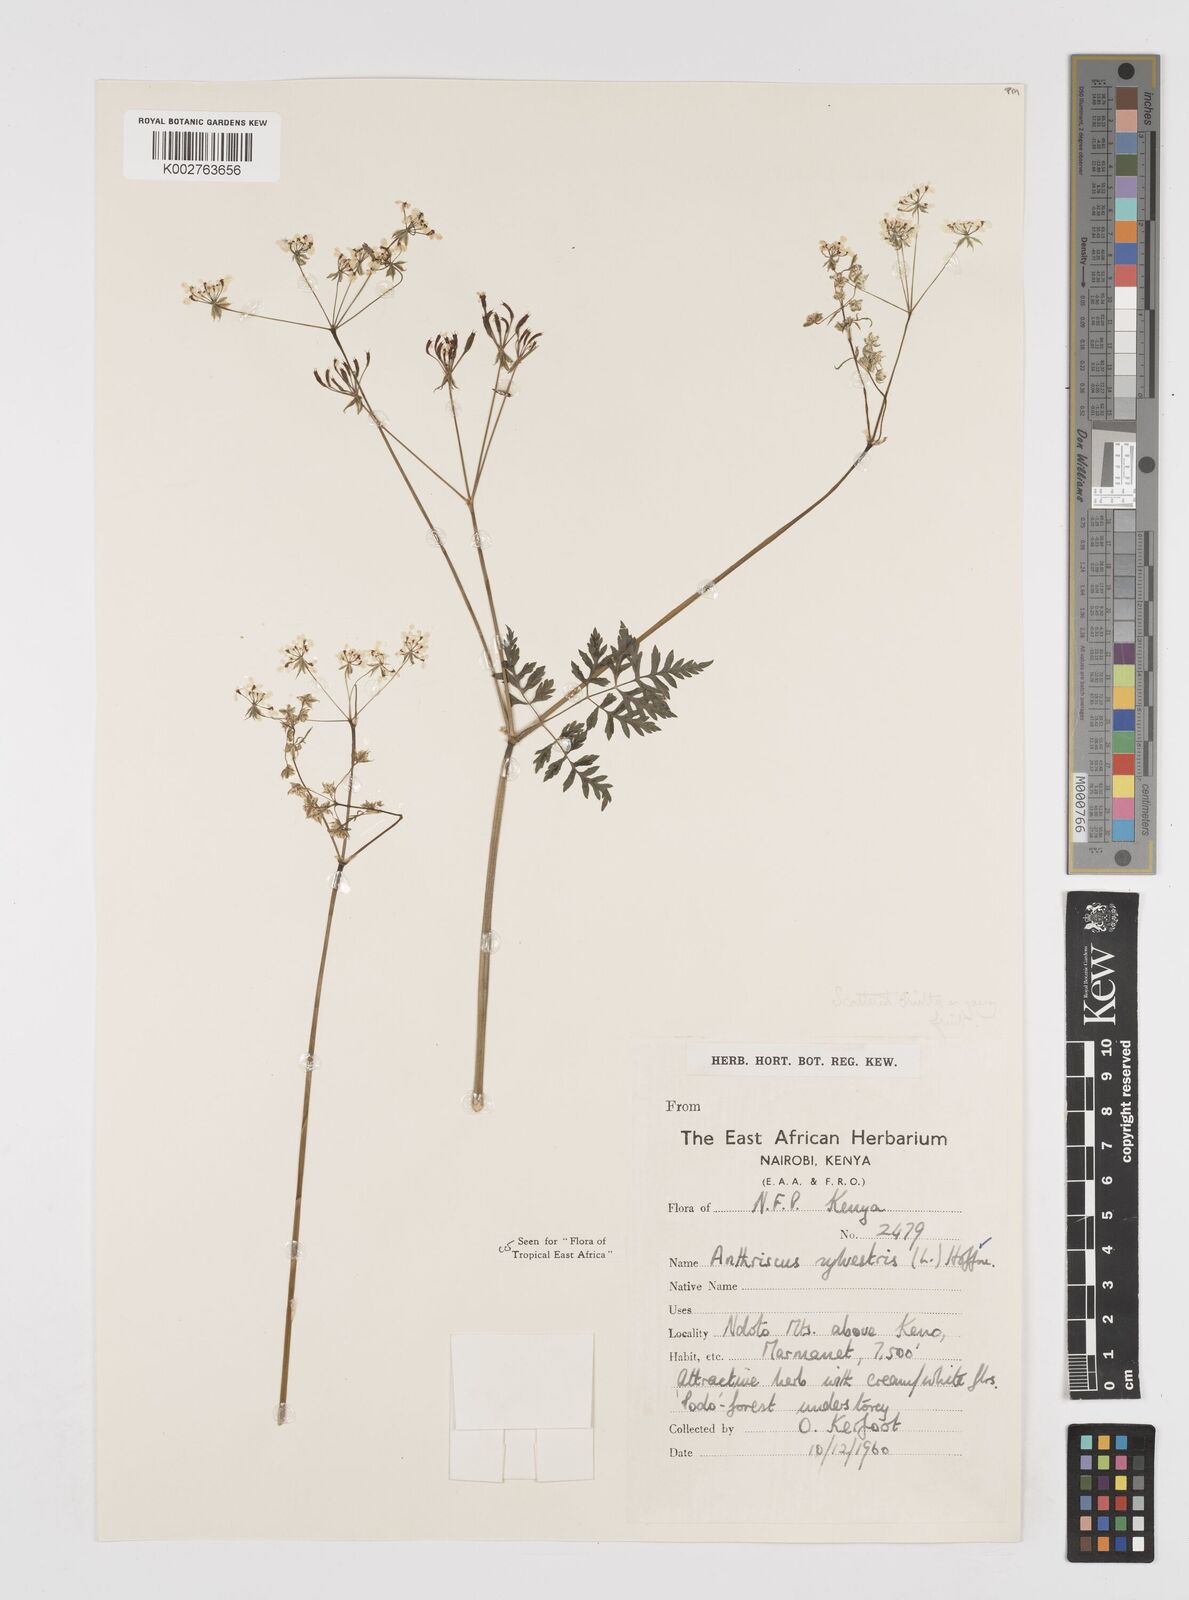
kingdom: Plantae
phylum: Tracheophyta
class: Magnoliopsida
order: Apiales
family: Apiaceae
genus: Anthriscus
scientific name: Anthriscus sylvestris
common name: Cow parsley
